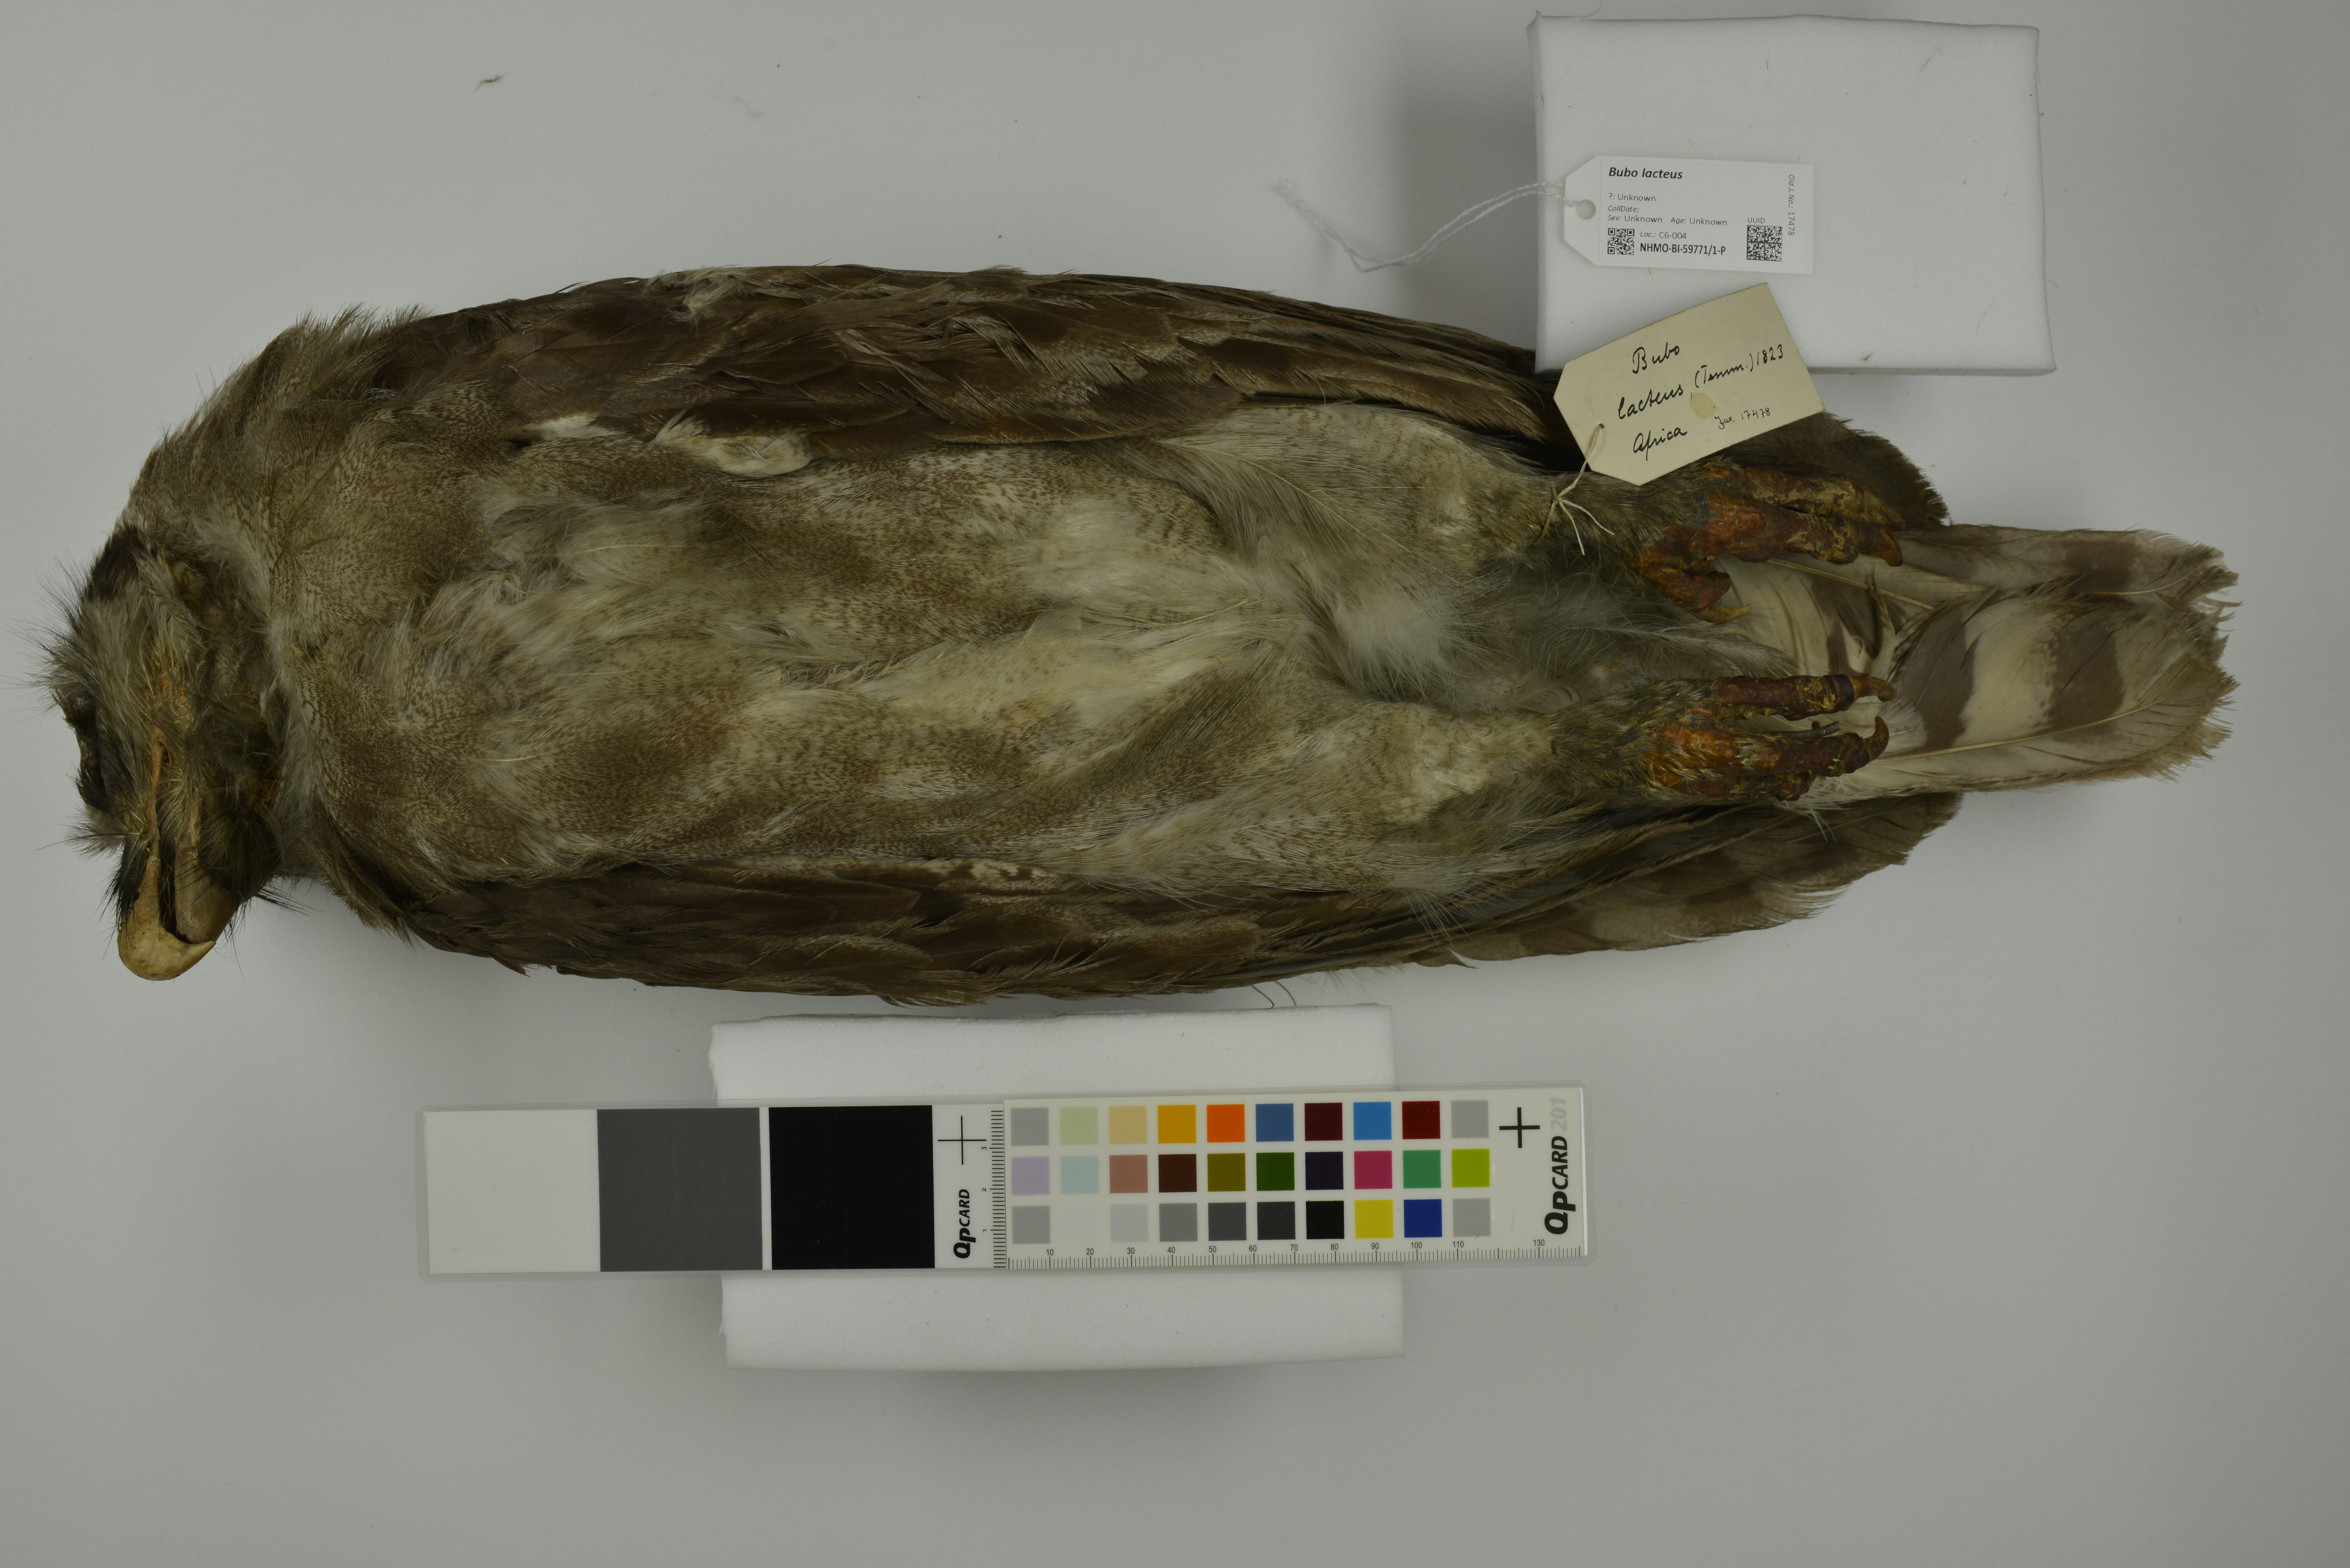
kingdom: Animalia
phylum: Chordata
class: Aves
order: Strigiformes
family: Strigidae
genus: Bubo
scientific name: Bubo lacteus
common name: Verreaux's eagle-owl
